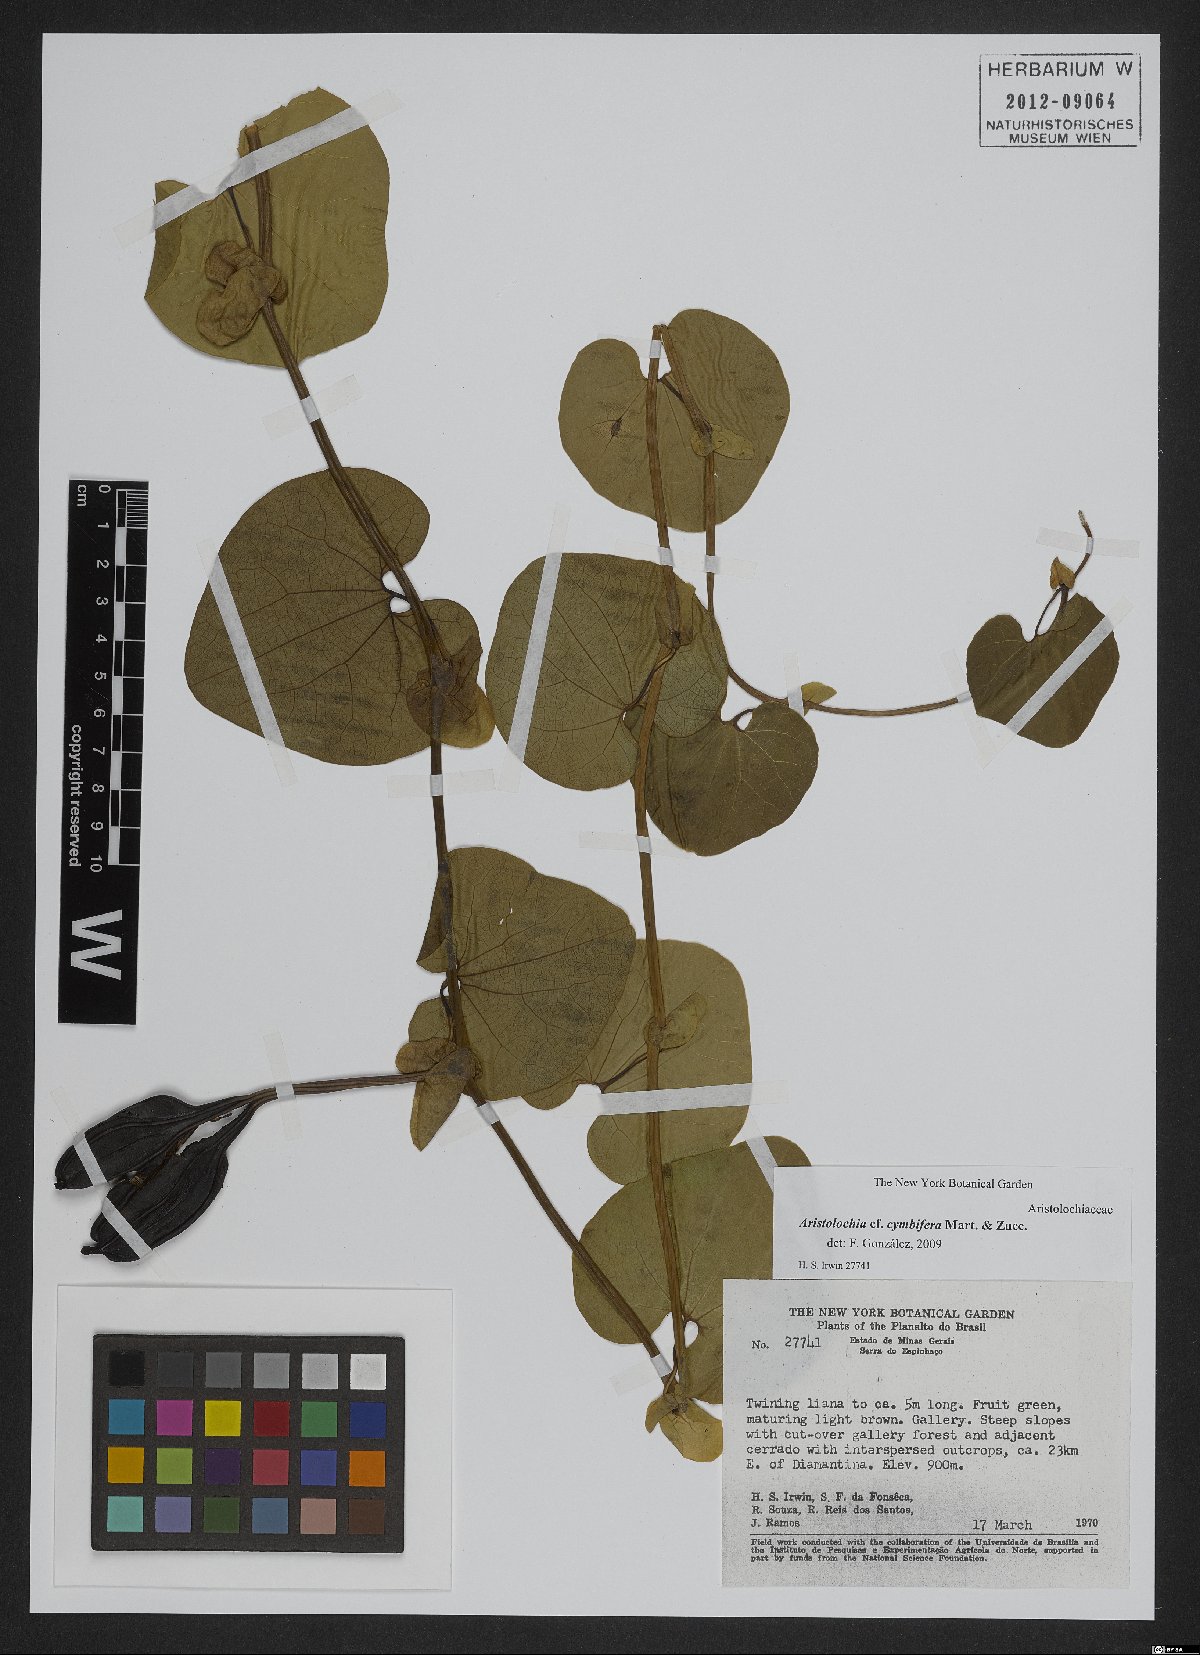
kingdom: Plantae
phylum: Tracheophyta
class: Magnoliopsida
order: Piperales
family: Aristolochiaceae
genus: Aristolochia
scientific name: Aristolochia cymbifera
